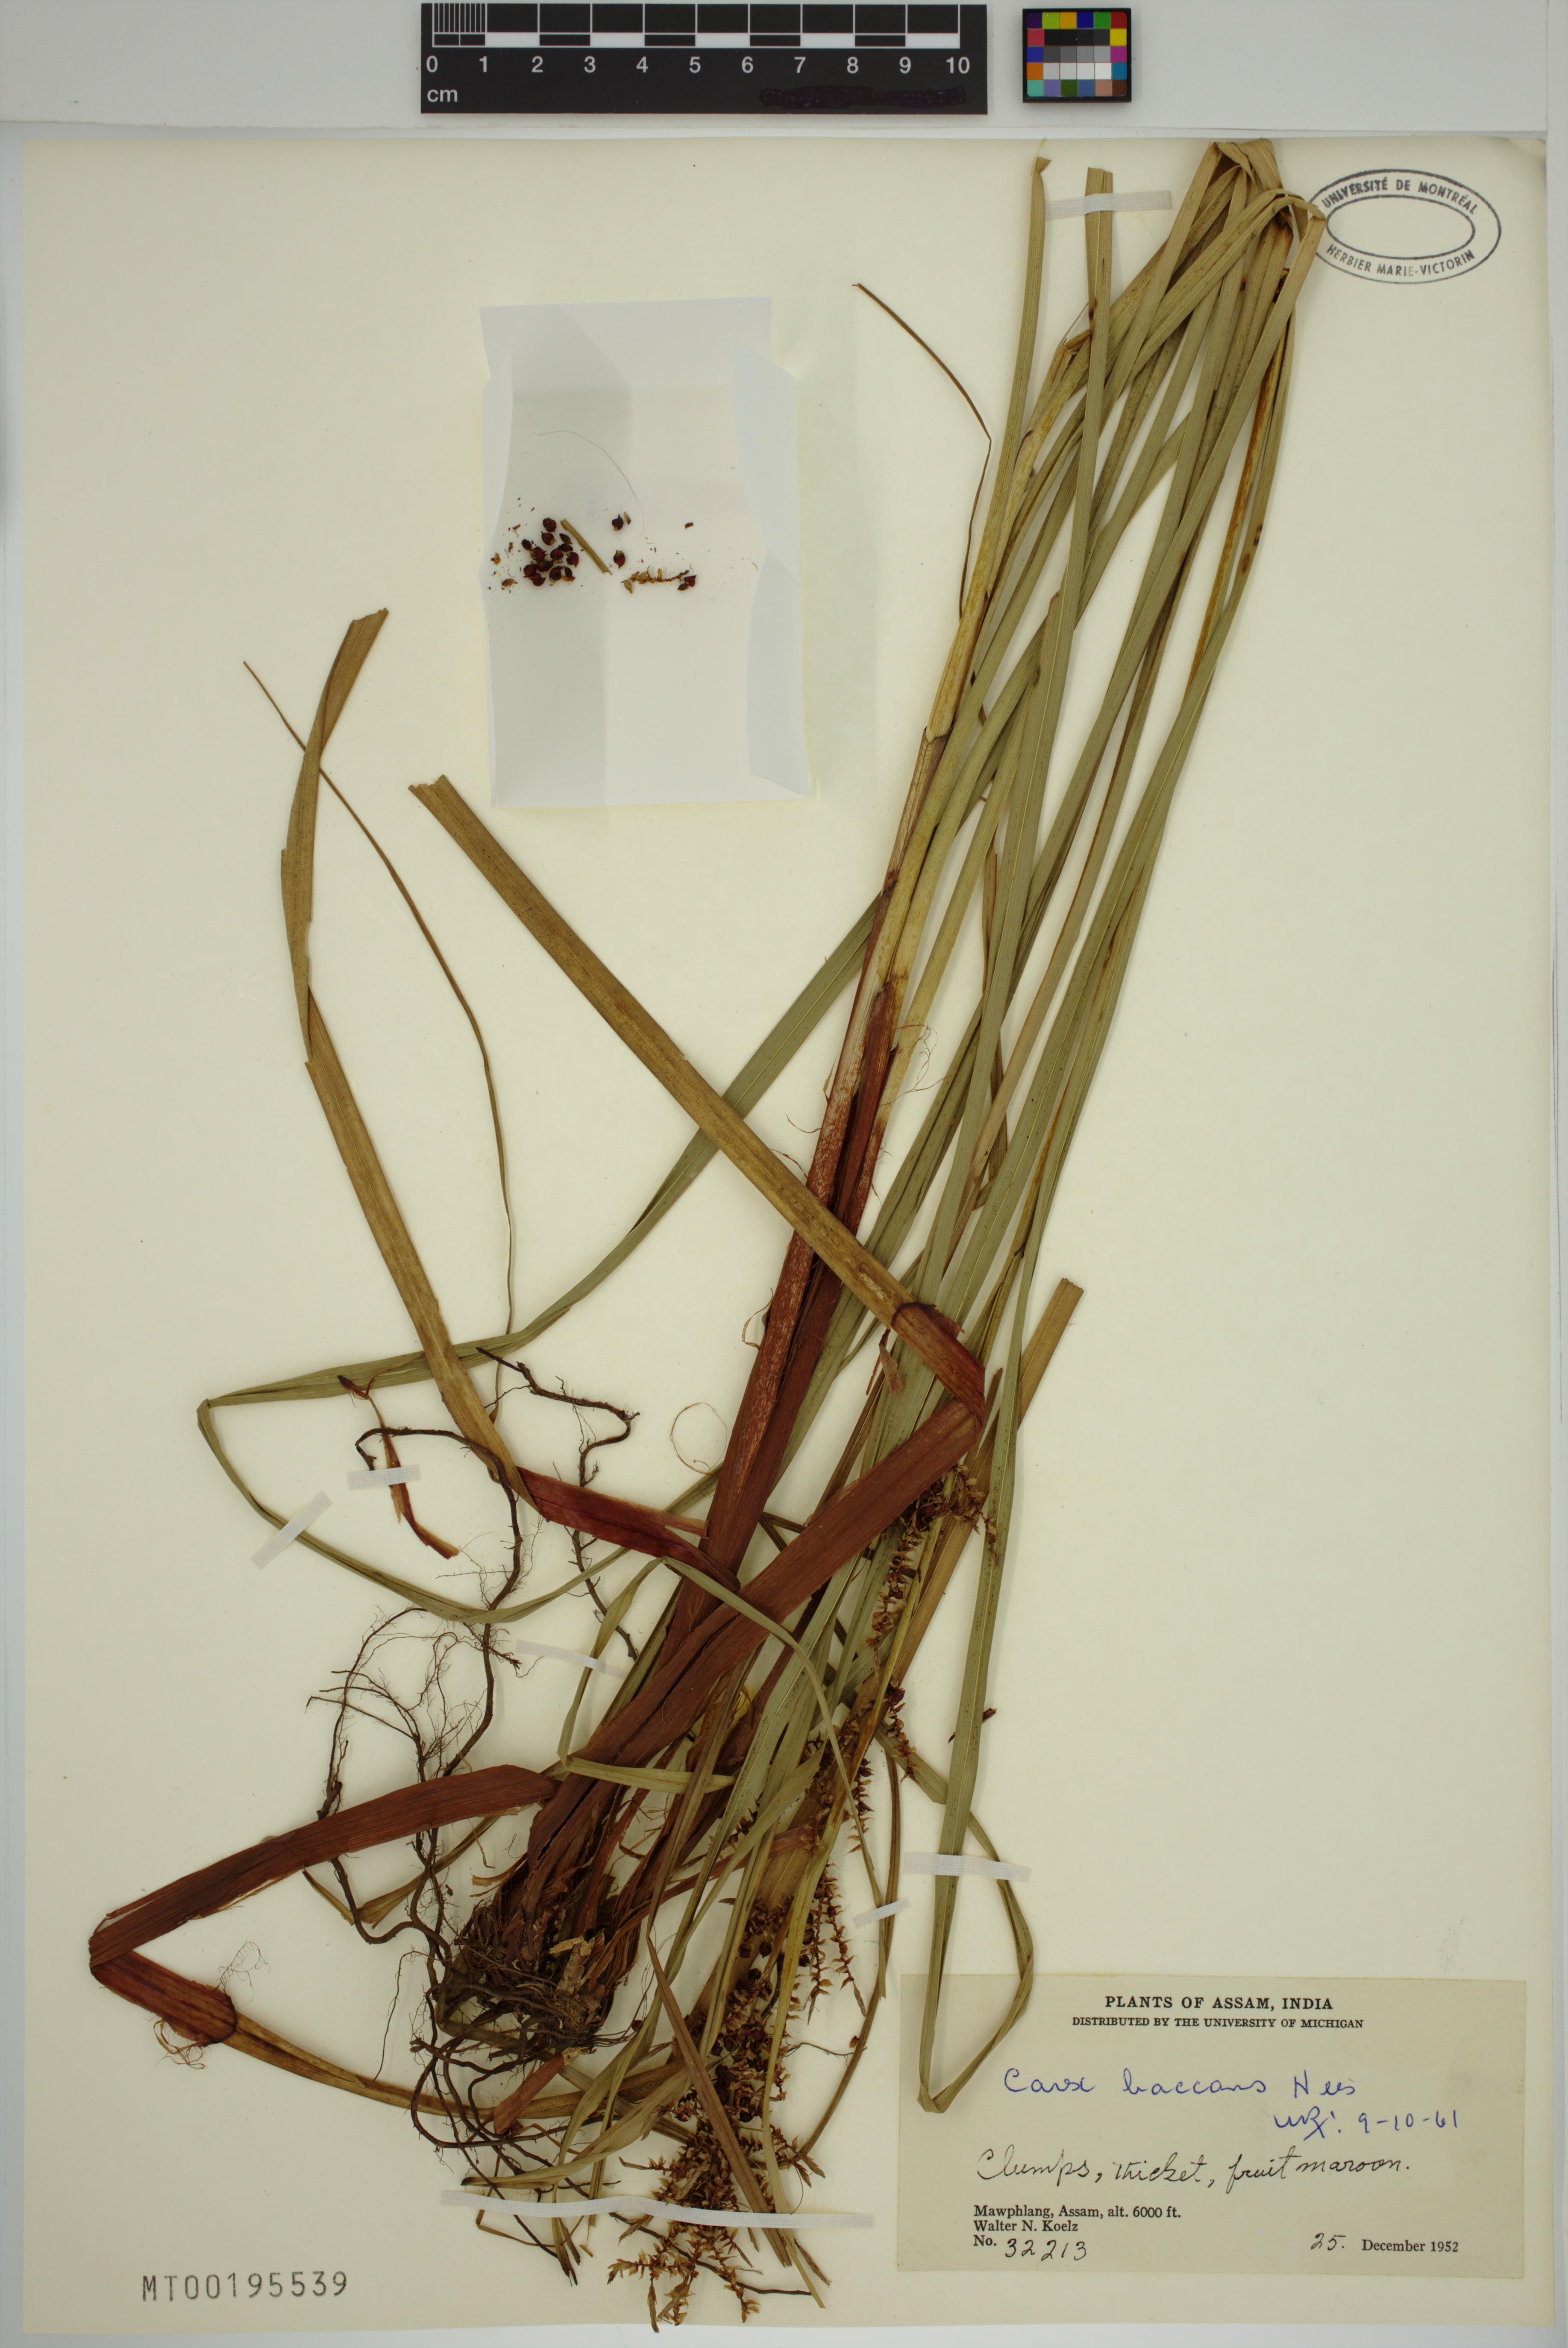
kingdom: Plantae
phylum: Tracheophyta
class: Liliopsida
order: Poales
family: Cyperaceae
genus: Carex
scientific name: Carex baccans
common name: Crimson seeded sedge
